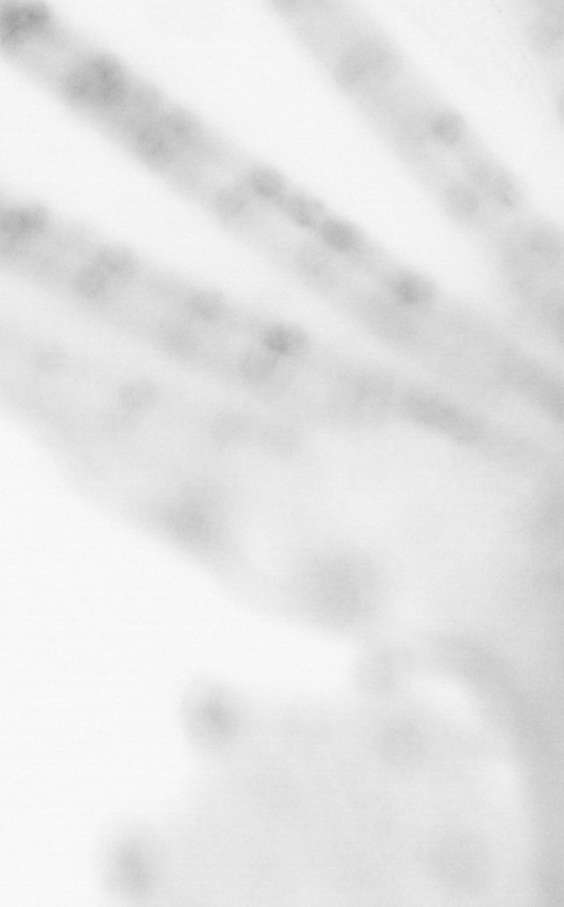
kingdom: Animalia
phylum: Chordata
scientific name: Chordata
